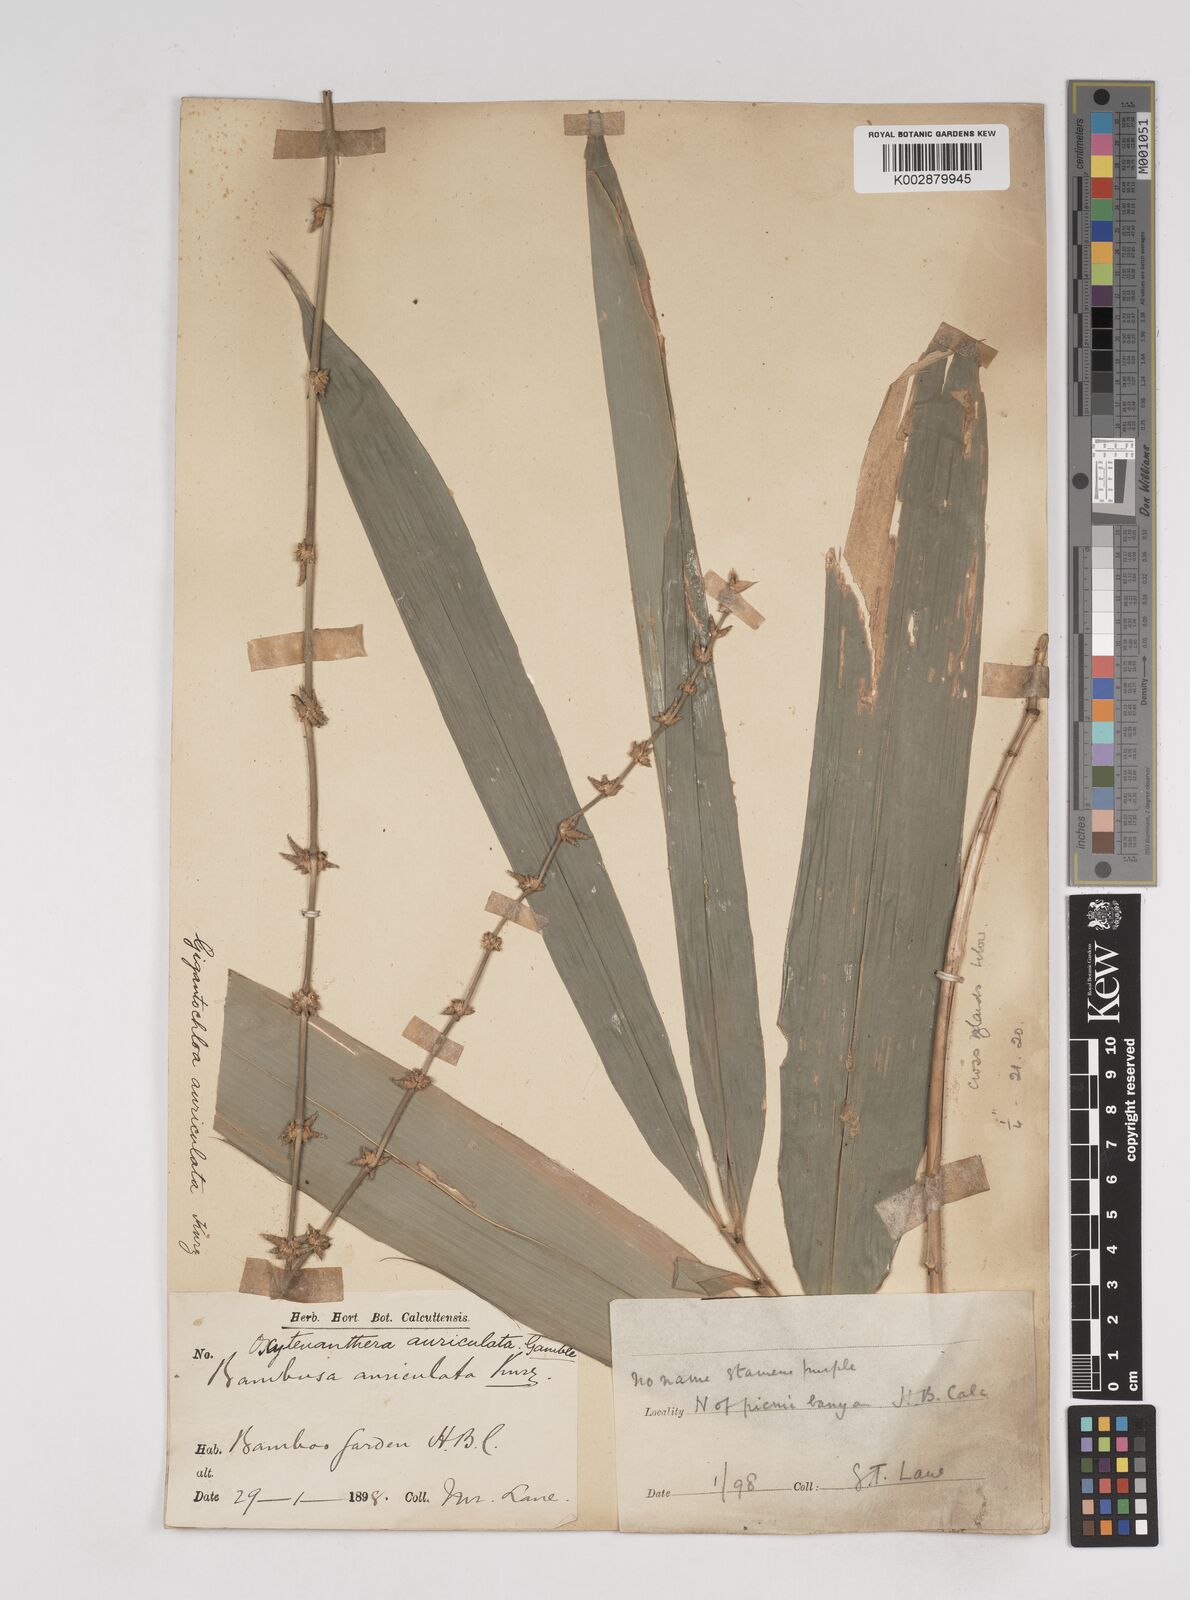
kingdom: Plantae
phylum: Tracheophyta
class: Liliopsida
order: Poales
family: Poaceae
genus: Gigantochloa
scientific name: Gigantochloa nigrociliata
